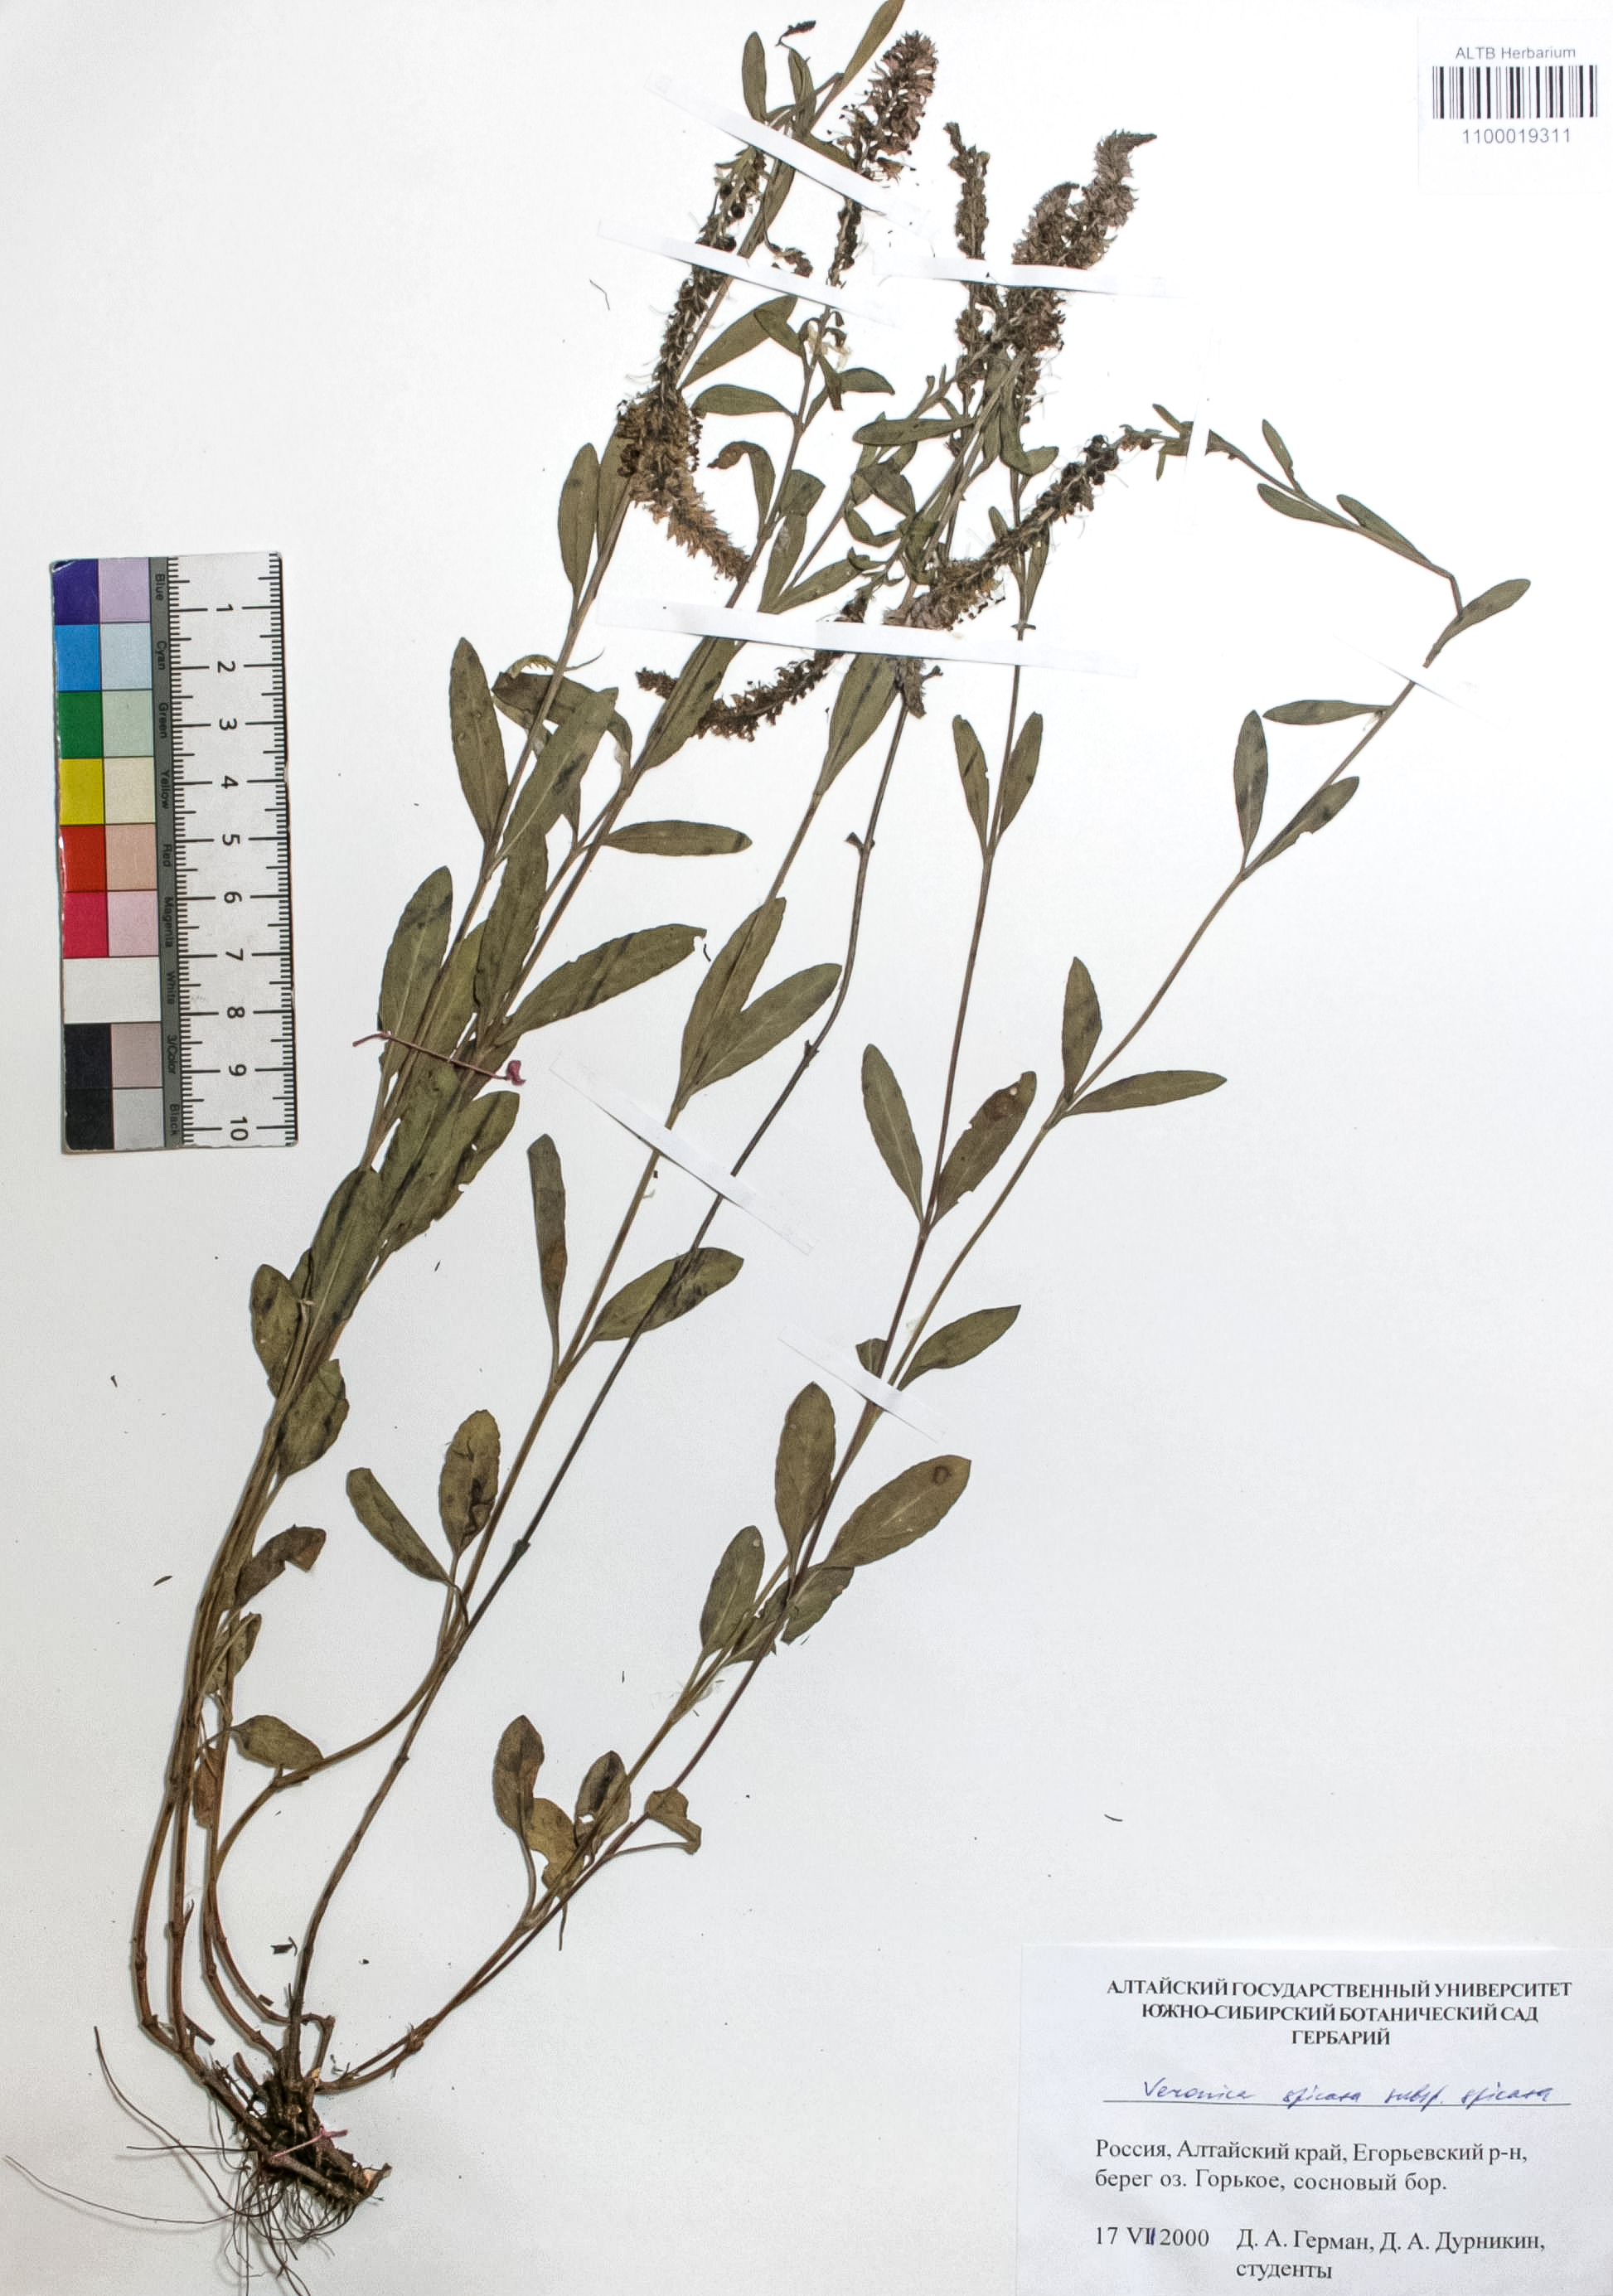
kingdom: Plantae
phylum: Tracheophyta
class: Magnoliopsida
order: Lamiales
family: Plantaginaceae
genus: Veronica
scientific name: Veronica spicata
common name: Spiked speedwell
